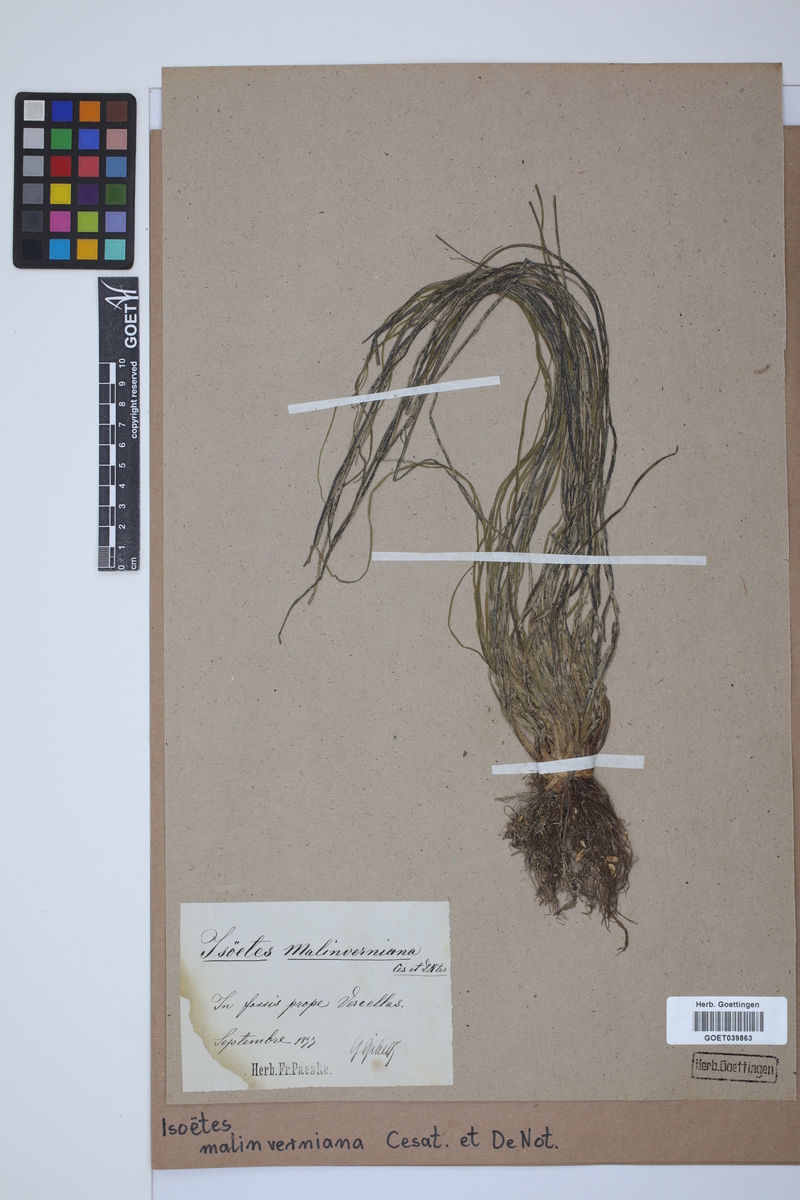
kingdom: Plantae
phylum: Tracheophyta
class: Lycopodiopsida
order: Isoetales
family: Isoetaceae
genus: Isoetes
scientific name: Isoetes malinverniana
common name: Piedmont quillwort
